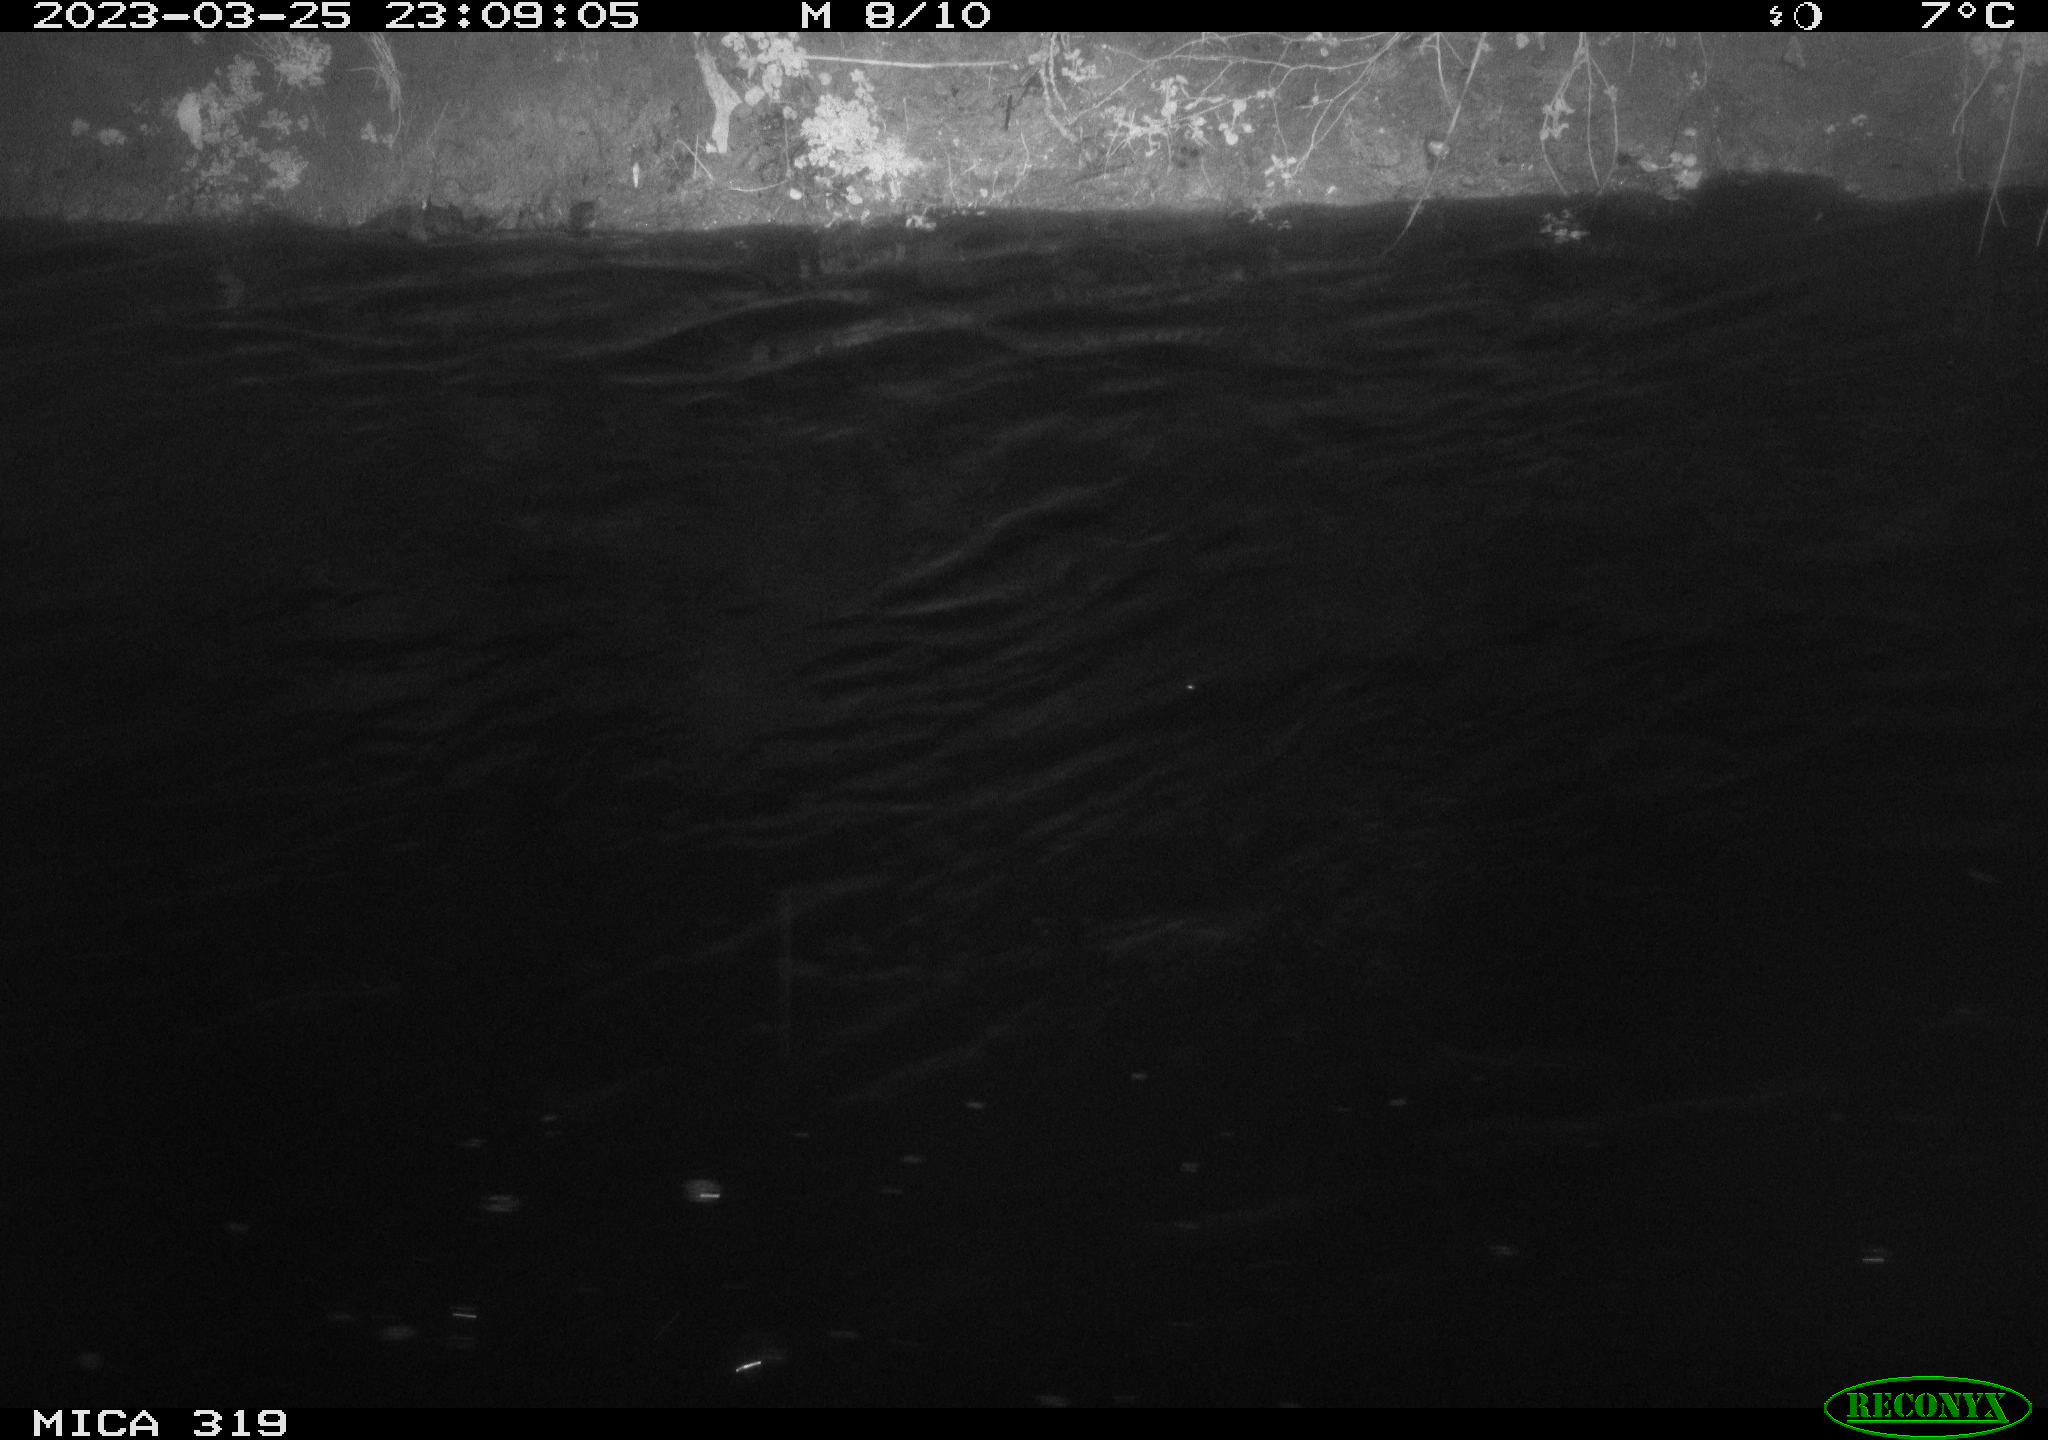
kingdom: Animalia
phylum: Chordata
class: Aves
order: Anseriformes
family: Anatidae
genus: Anas
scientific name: Anas
